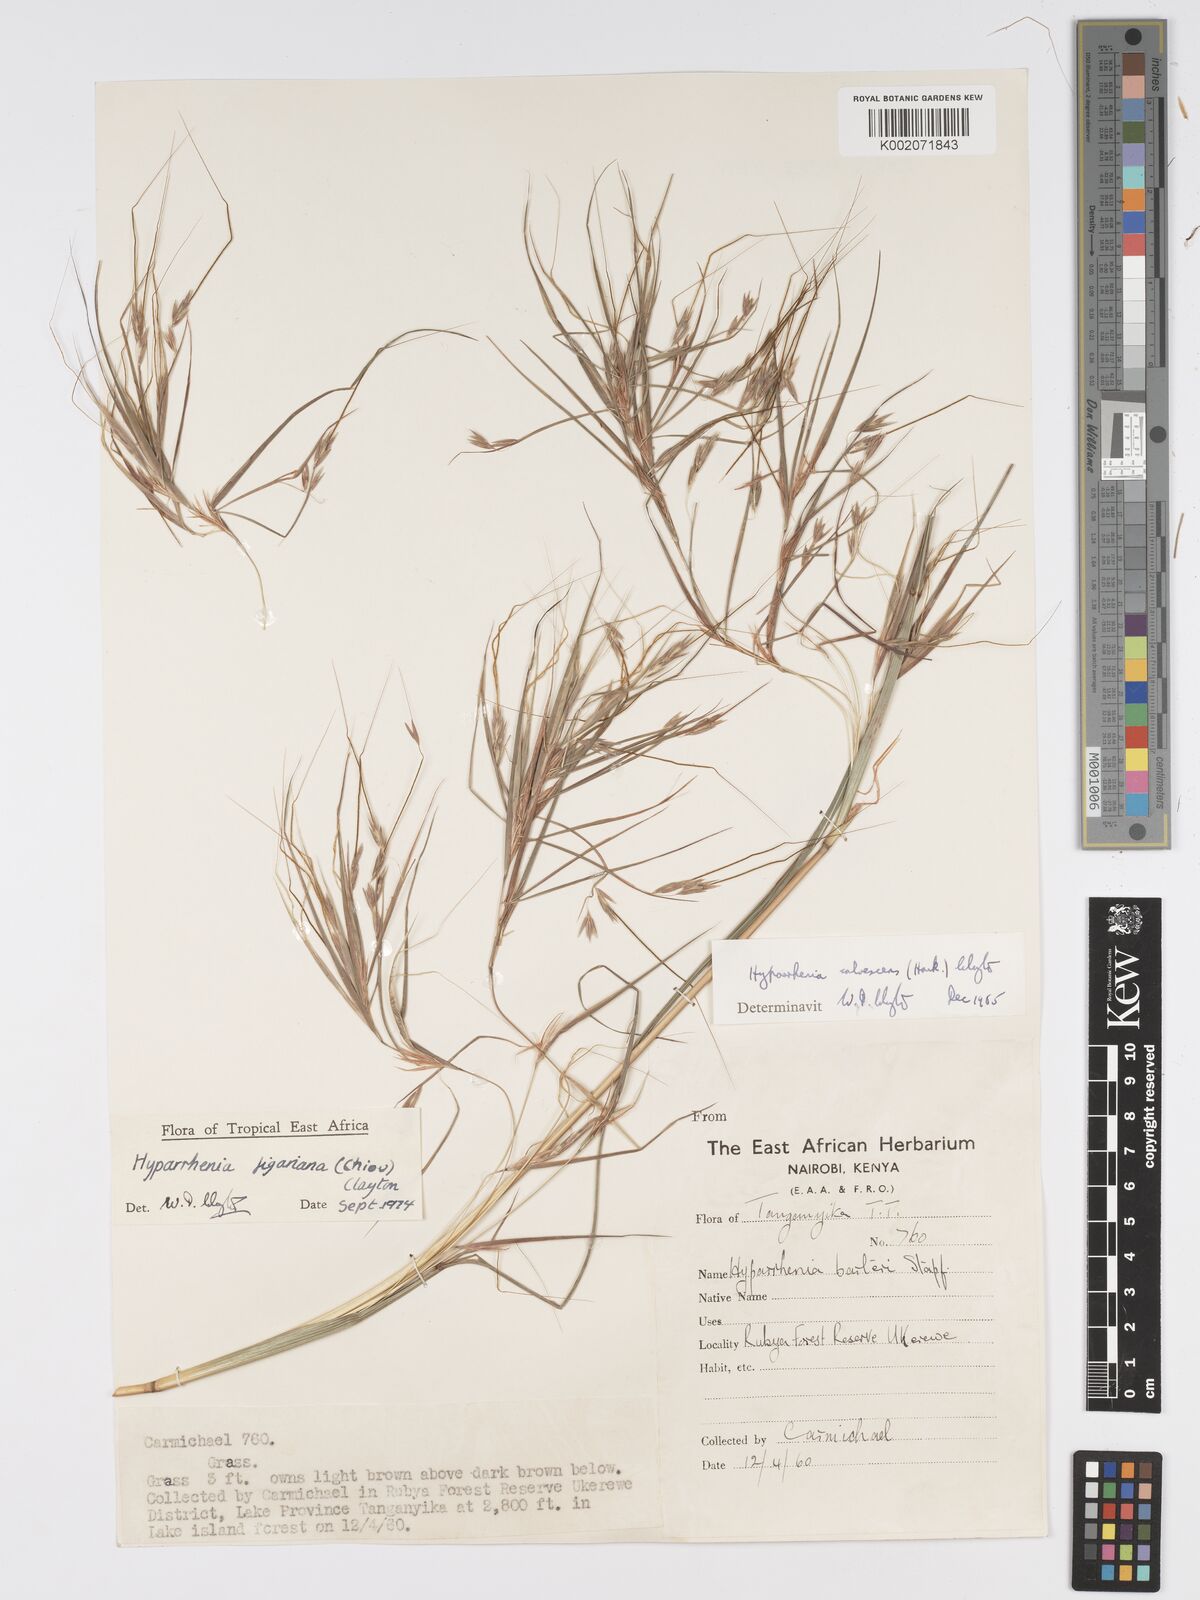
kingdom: Plantae
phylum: Tracheophyta
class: Liliopsida
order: Poales
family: Poaceae
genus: Hyparrhenia
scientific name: Hyparrhenia figariana
